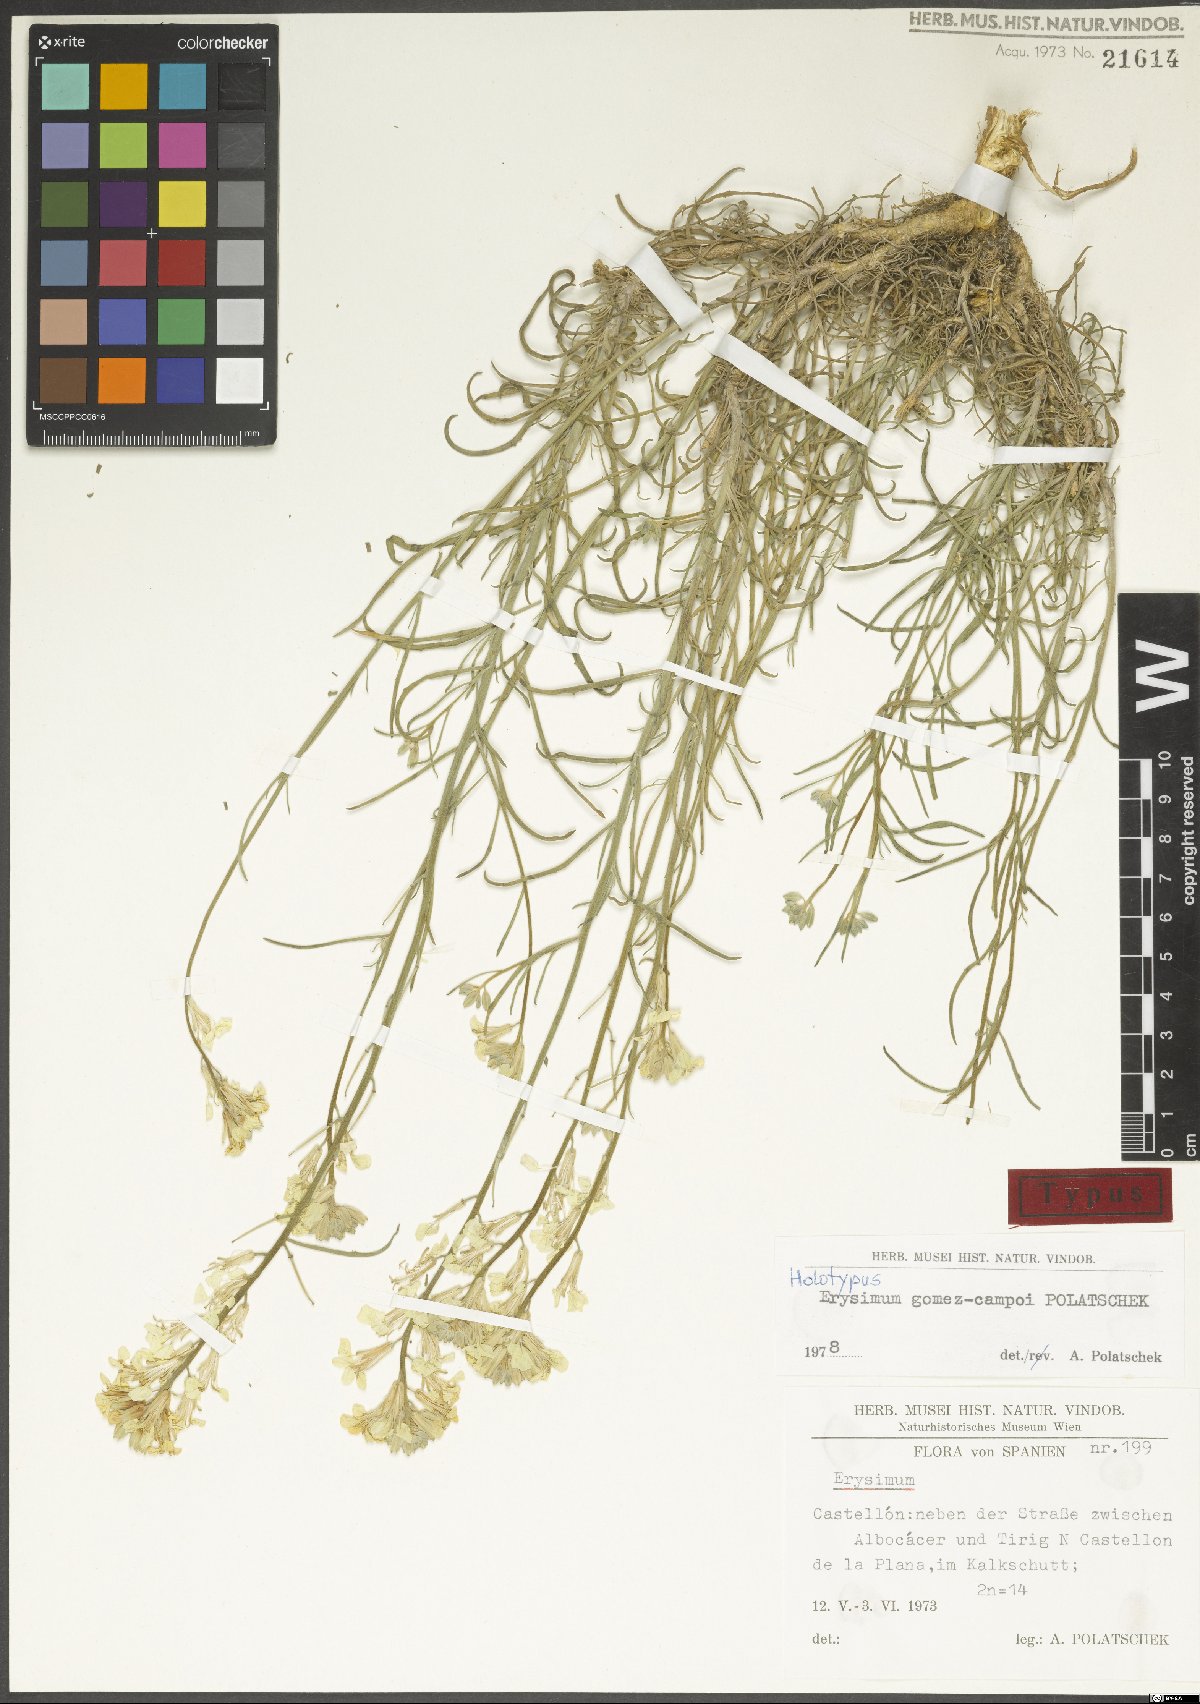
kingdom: Plantae
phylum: Tracheophyta
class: Magnoliopsida
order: Brassicales
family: Brassicaceae
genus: Erysimum
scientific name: Erysimum nevadense
